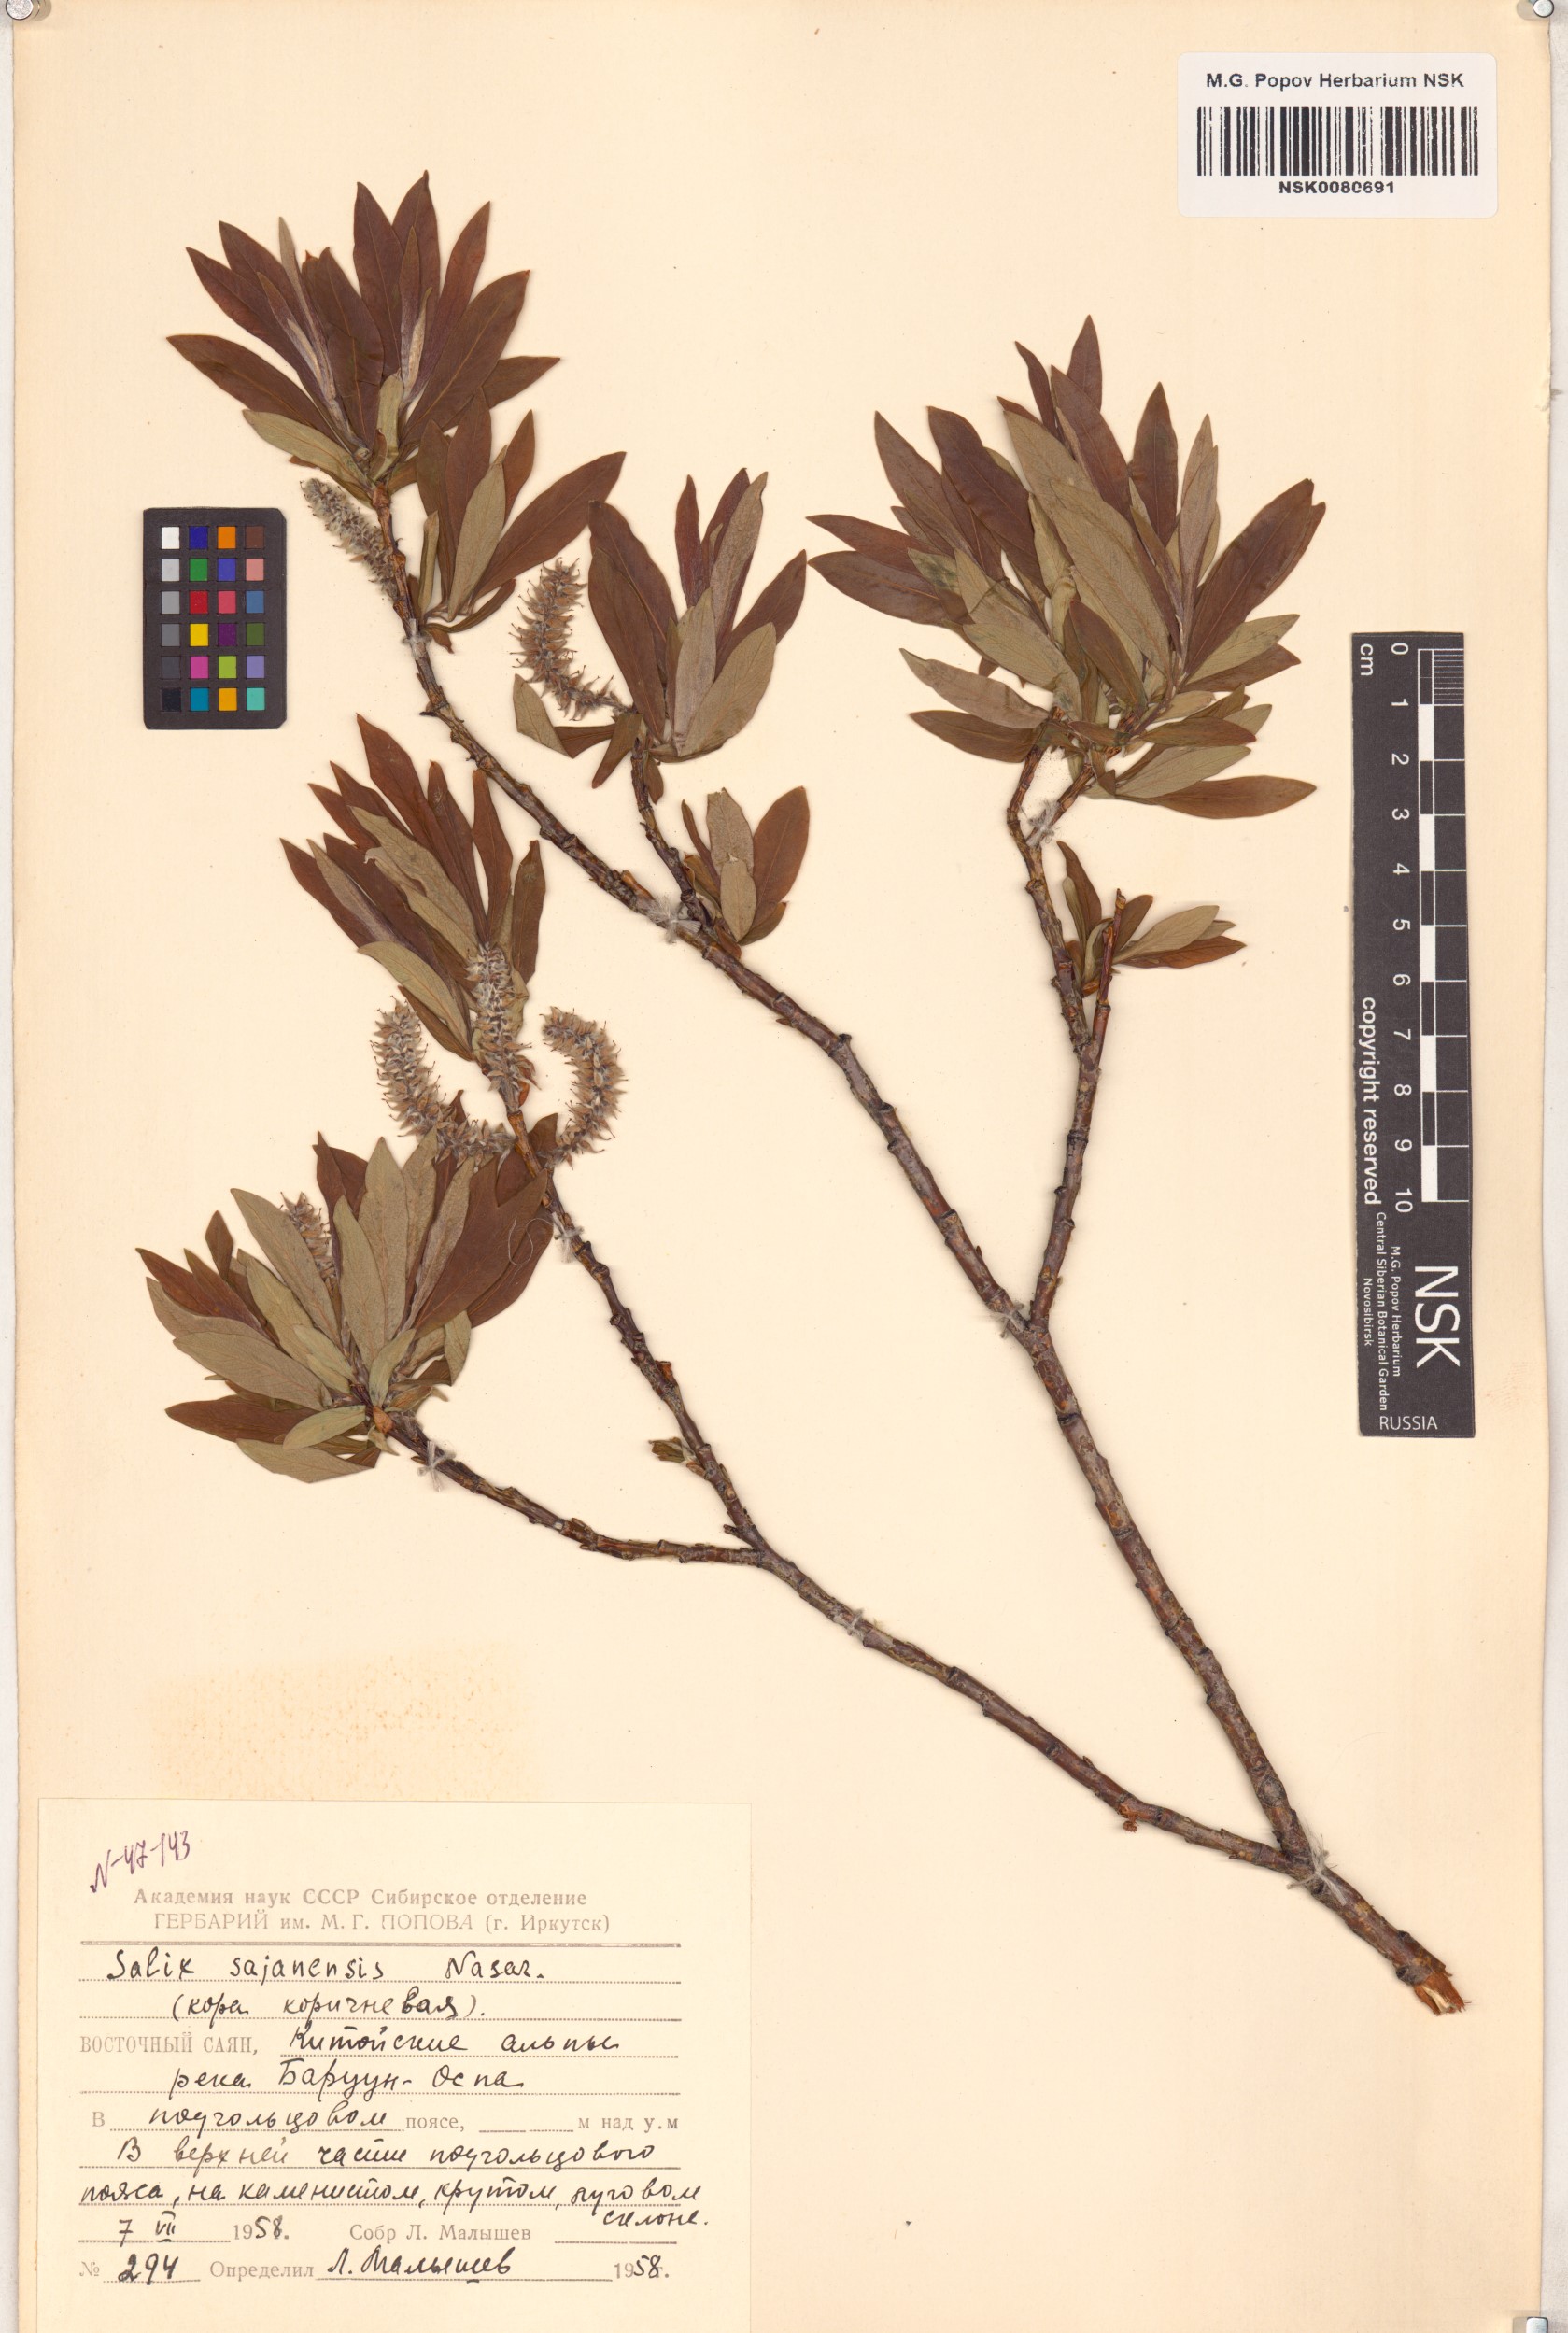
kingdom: Plantae
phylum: Tracheophyta
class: Magnoliopsida
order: Malpighiales
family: Salicaceae
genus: Salix
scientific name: Salix sajanensis
